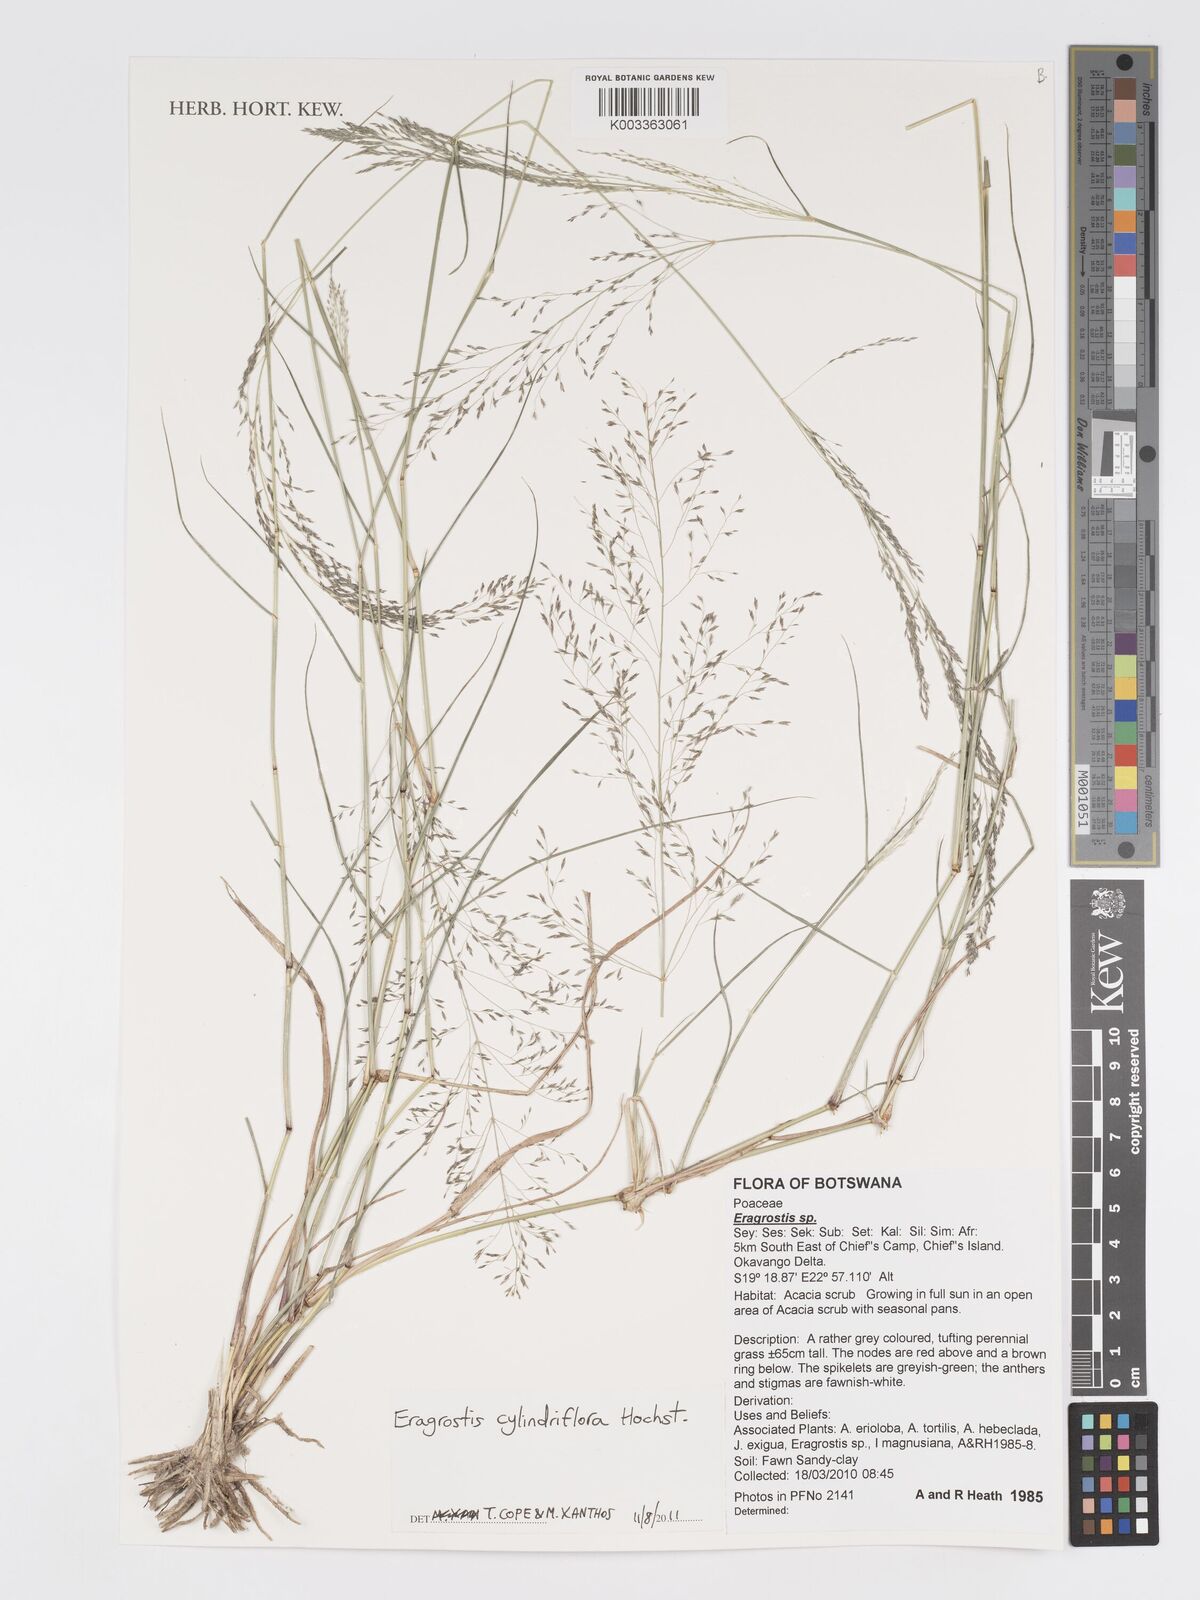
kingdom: Plantae
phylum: Tracheophyta
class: Liliopsida
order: Poales
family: Poaceae
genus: Eragrostis
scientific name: Eragrostis cylindriflora
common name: Cylinderflower lovegrass
